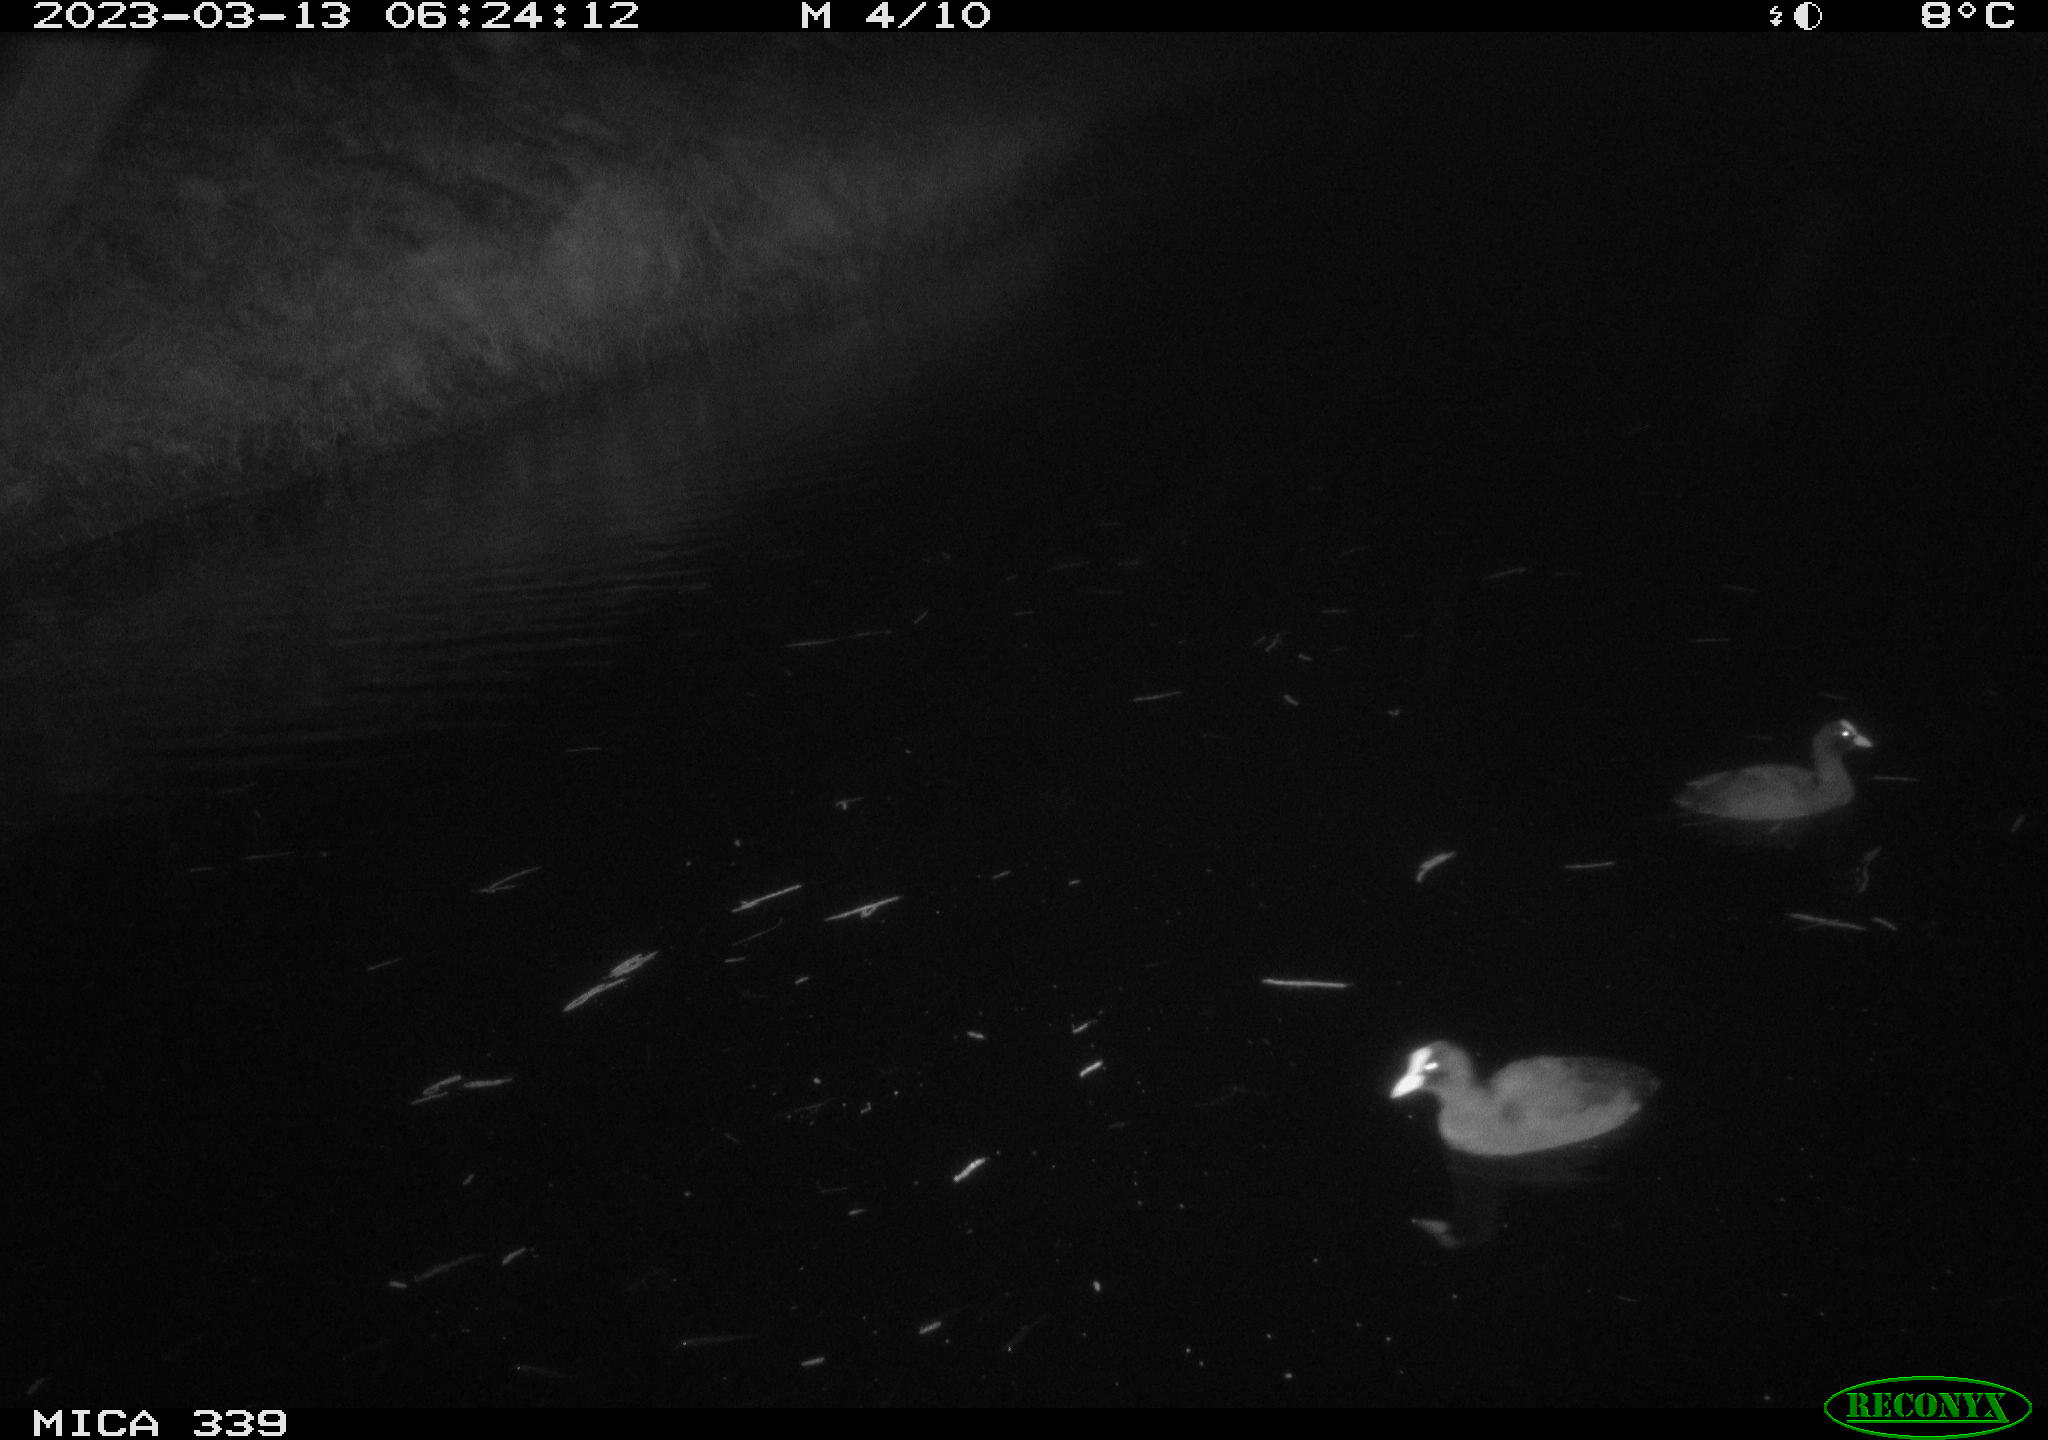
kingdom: Animalia
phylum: Chordata
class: Aves
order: Gruiformes
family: Rallidae
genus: Fulica
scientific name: Fulica atra
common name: Eurasian coot
